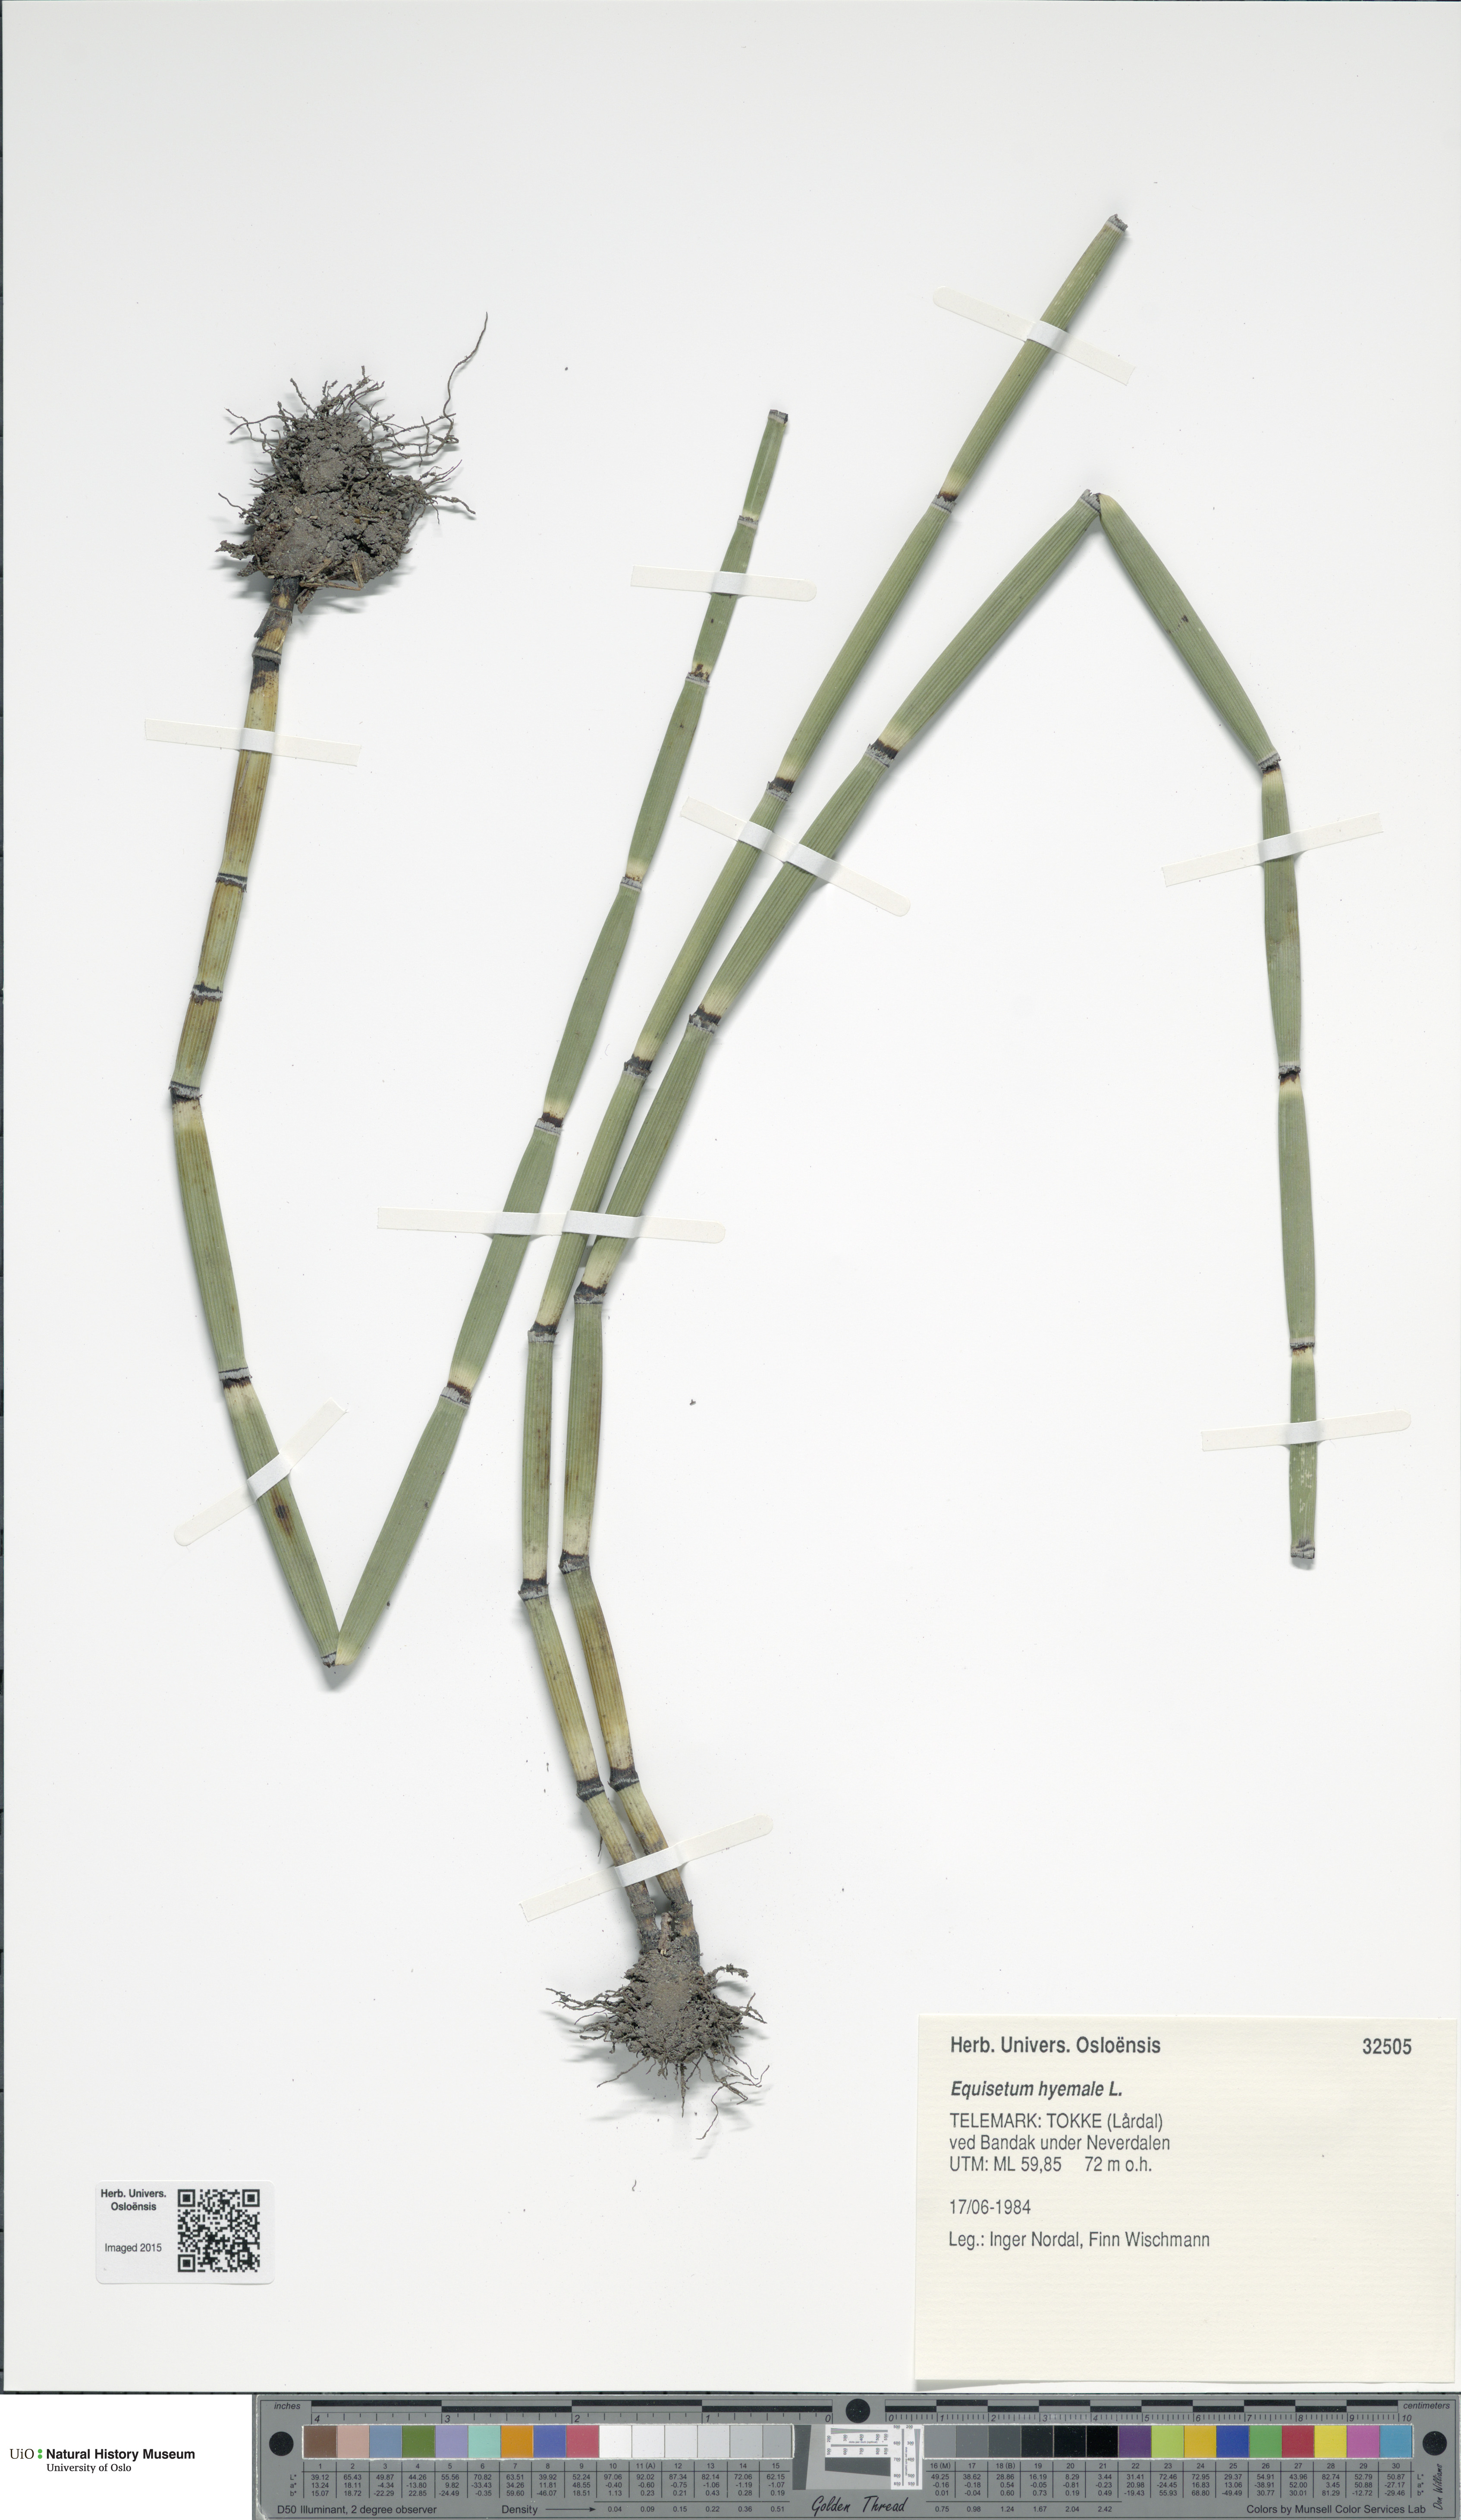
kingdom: Plantae
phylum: Tracheophyta
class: Polypodiopsida
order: Equisetales
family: Equisetaceae
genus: Equisetum
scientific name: Equisetum hyemale
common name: Rough horsetail
